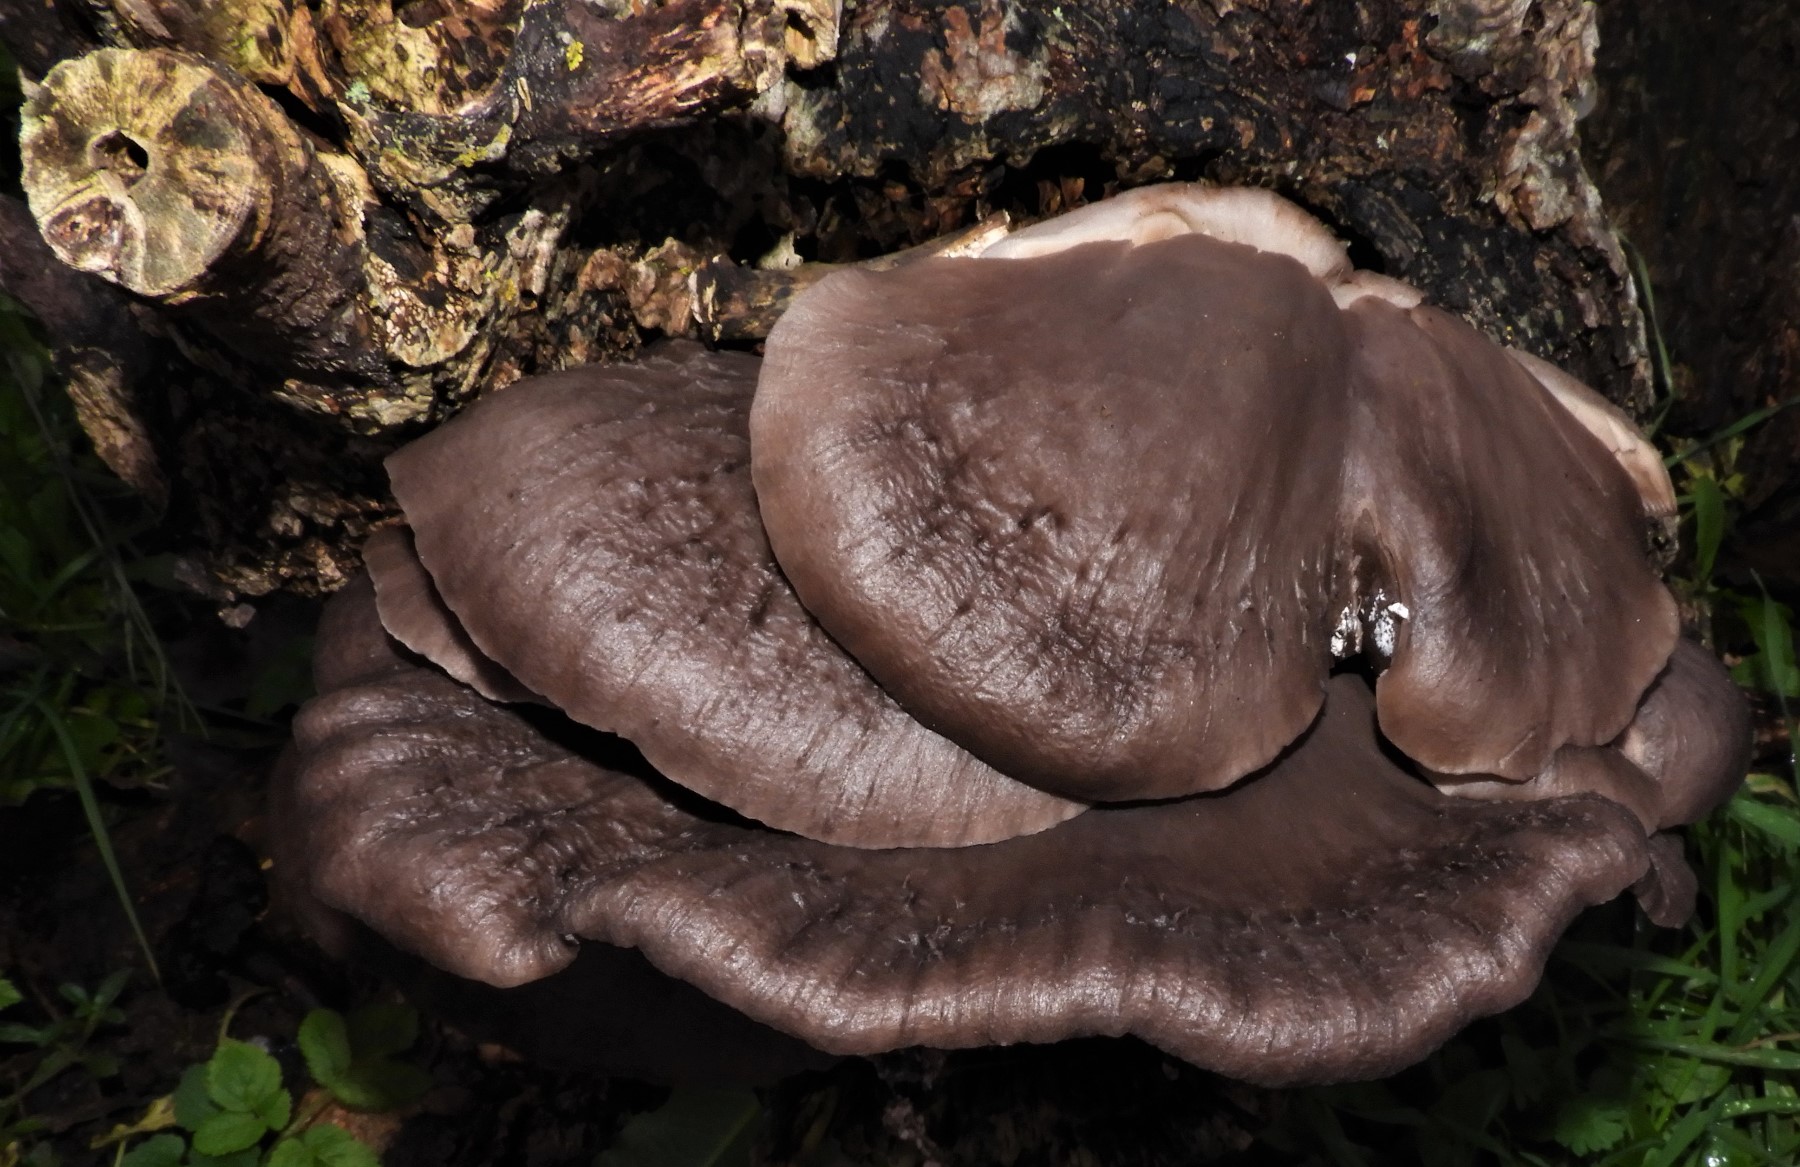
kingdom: Fungi
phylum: Basidiomycota
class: Agaricomycetes
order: Agaricales
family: Pleurotaceae
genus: Pleurotus
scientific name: Pleurotus ostreatus
